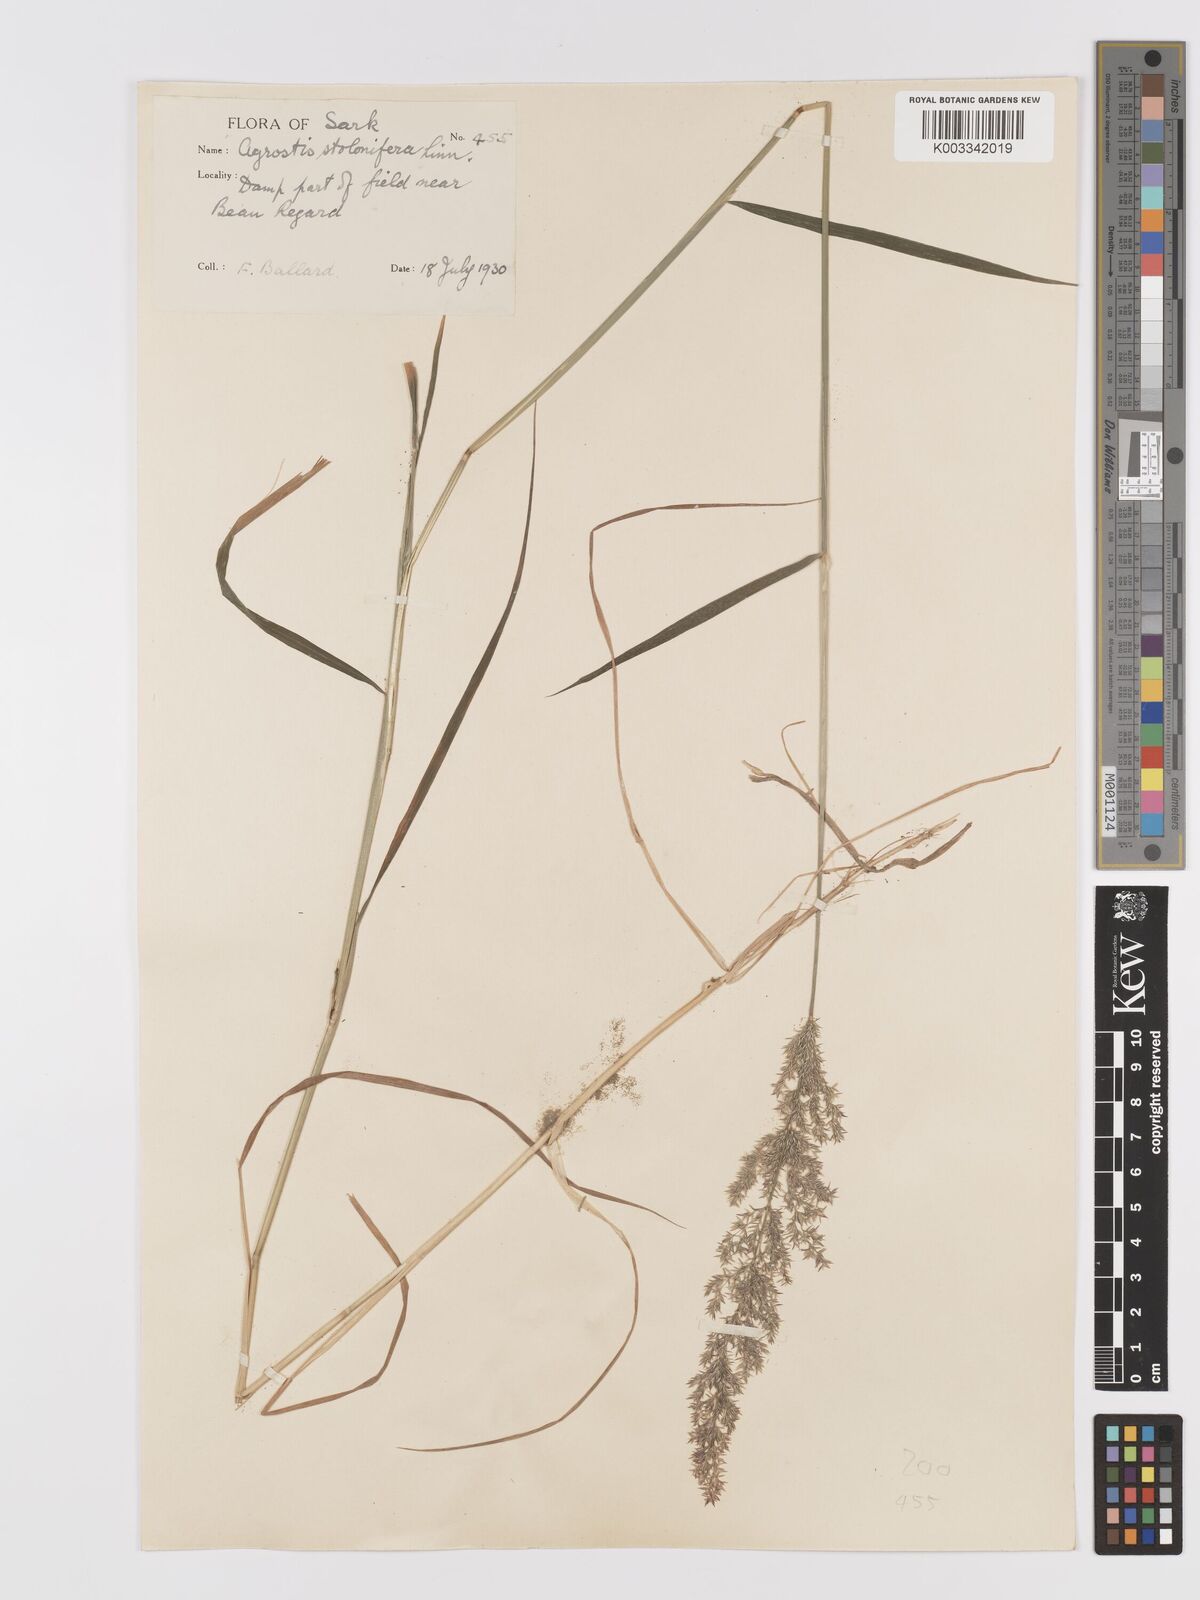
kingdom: Plantae
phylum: Tracheophyta
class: Liliopsida
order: Poales
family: Poaceae
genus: Agrostis
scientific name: Agrostis stolonifera
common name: Creeping bentgrass
